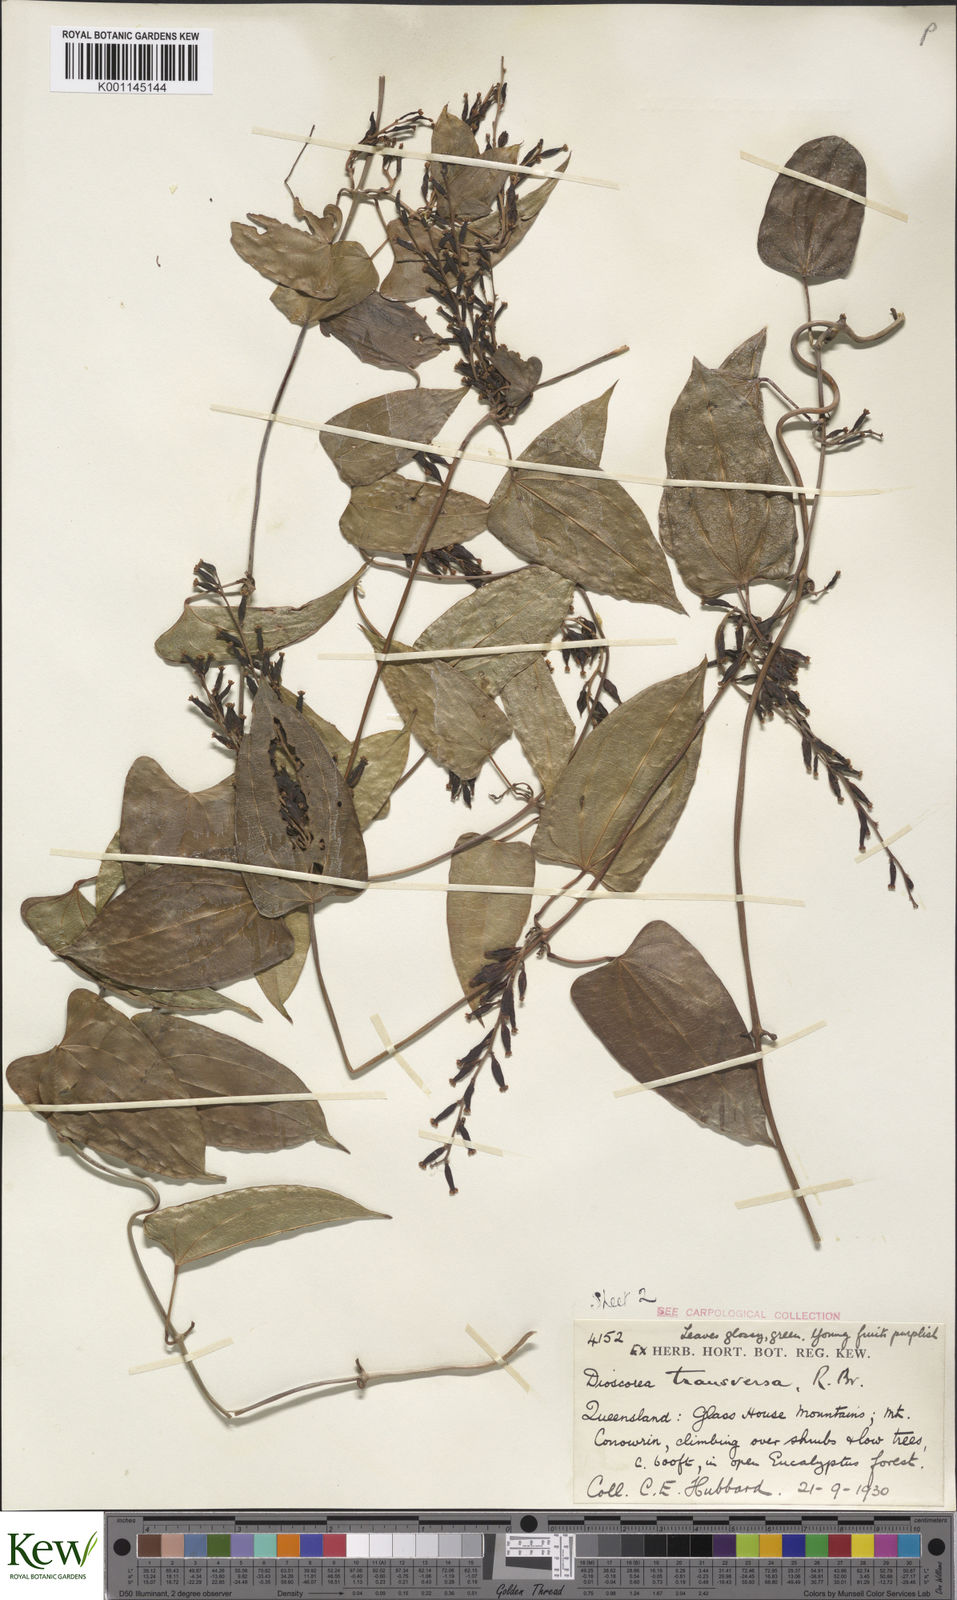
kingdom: Plantae
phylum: Tracheophyta
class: Liliopsida
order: Dioscoreales
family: Dioscoreaceae
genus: Dioscorea
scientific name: Dioscorea transversa
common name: Long yam
